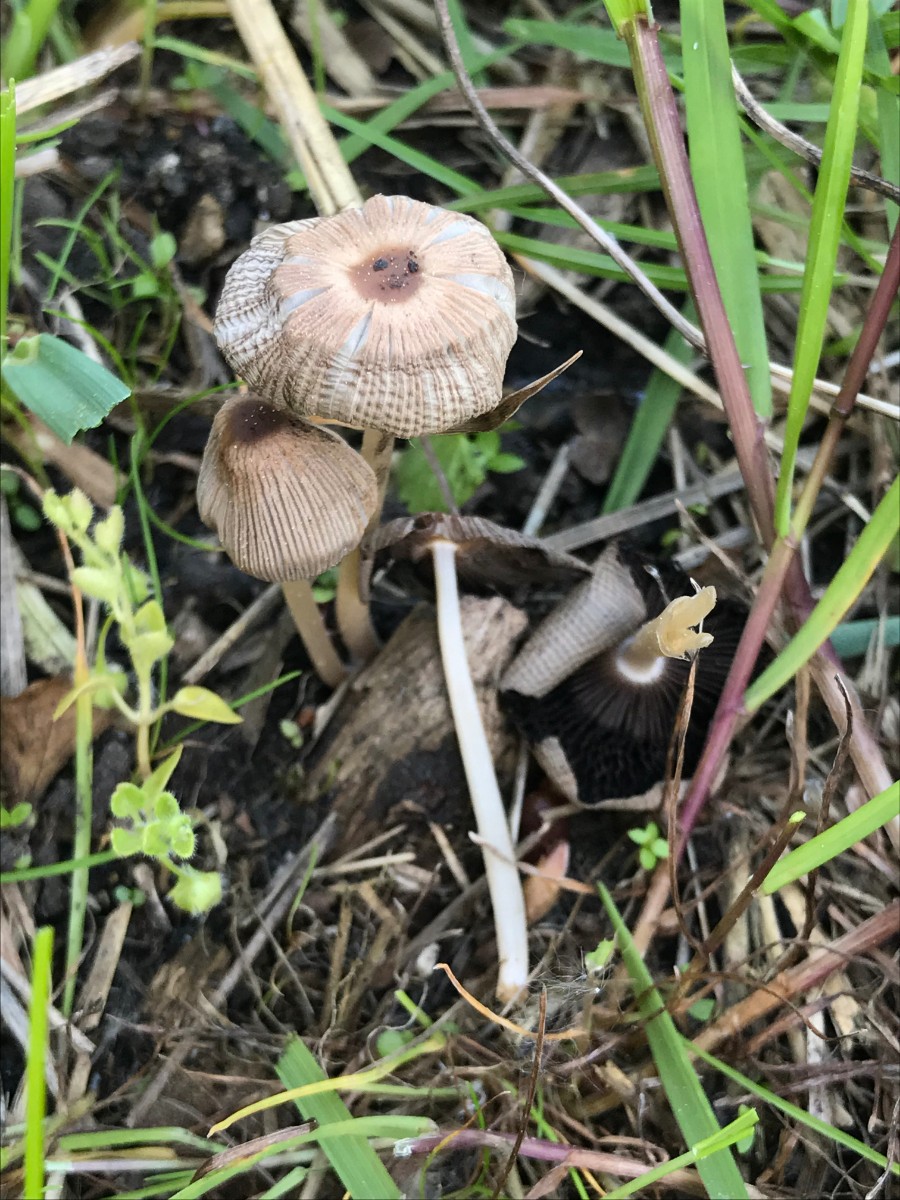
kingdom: Fungi
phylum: Basidiomycota
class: Agaricomycetes
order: Agaricales
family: Psathyrellaceae
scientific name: Psathyrellaceae
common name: mørkhatfamilien
